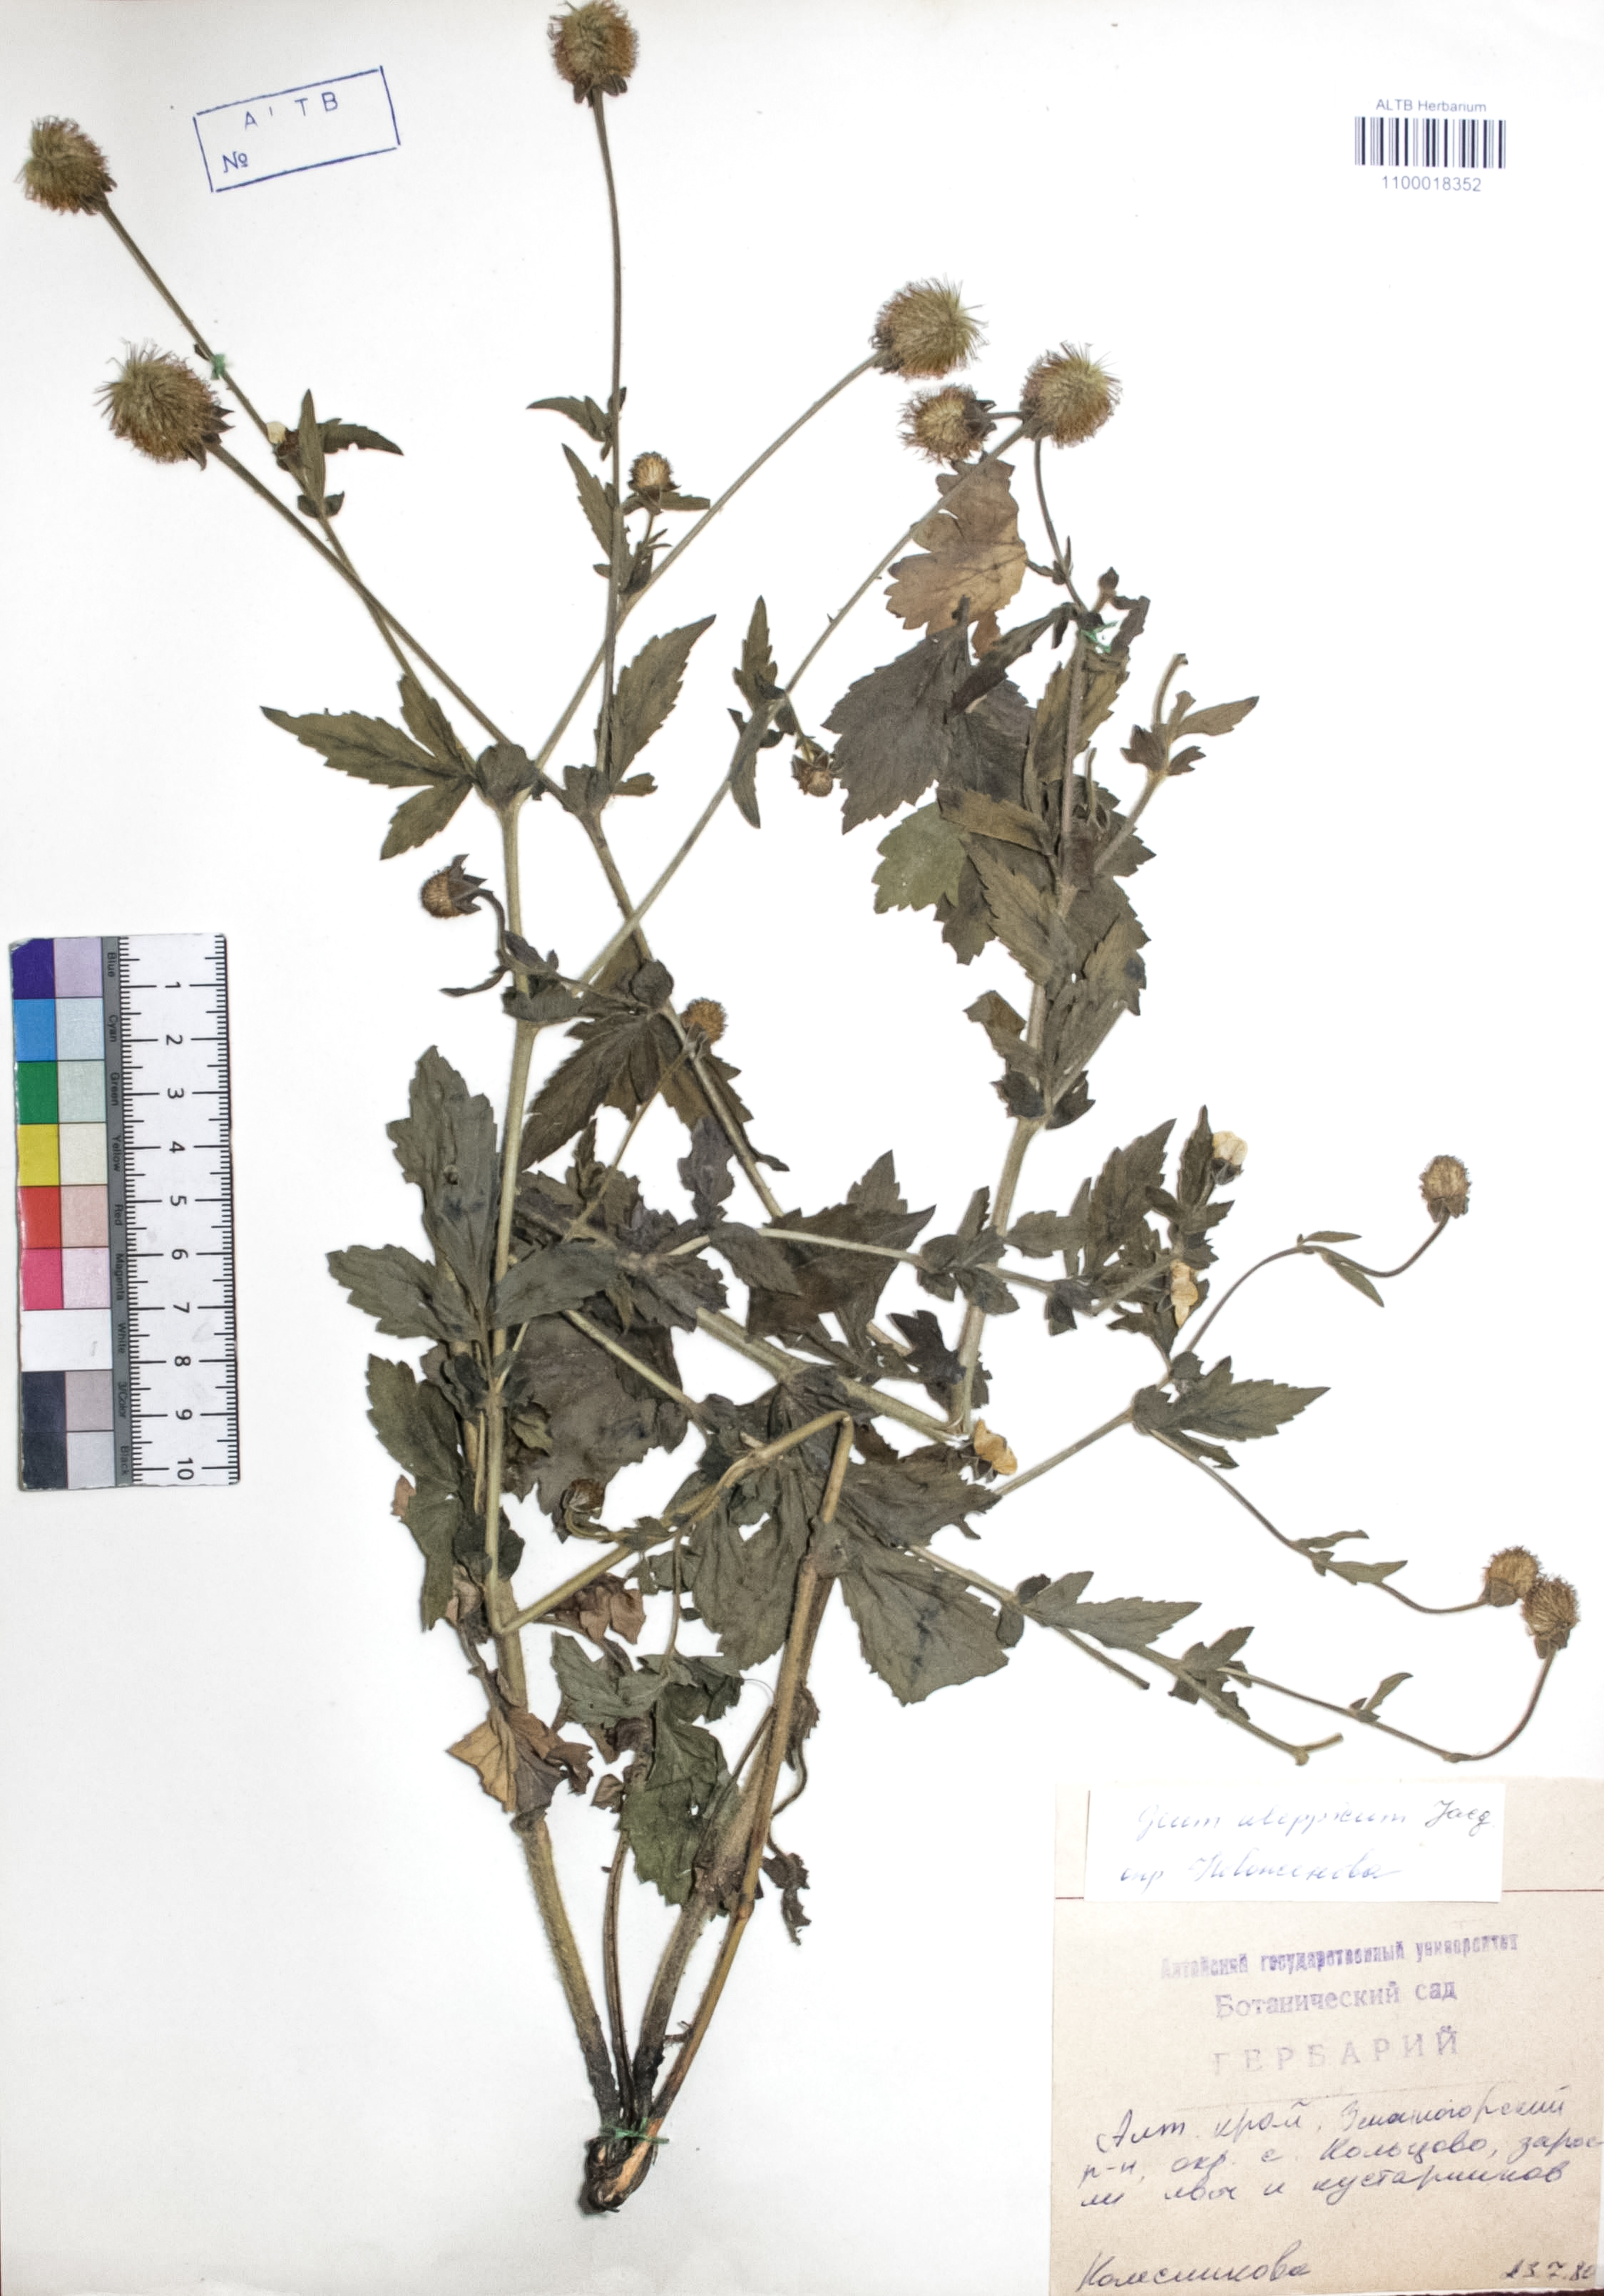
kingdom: Plantae
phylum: Tracheophyta
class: Magnoliopsida
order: Rosales
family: Rosaceae
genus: Geum
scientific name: Geum aleppicum
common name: Yellow avens
